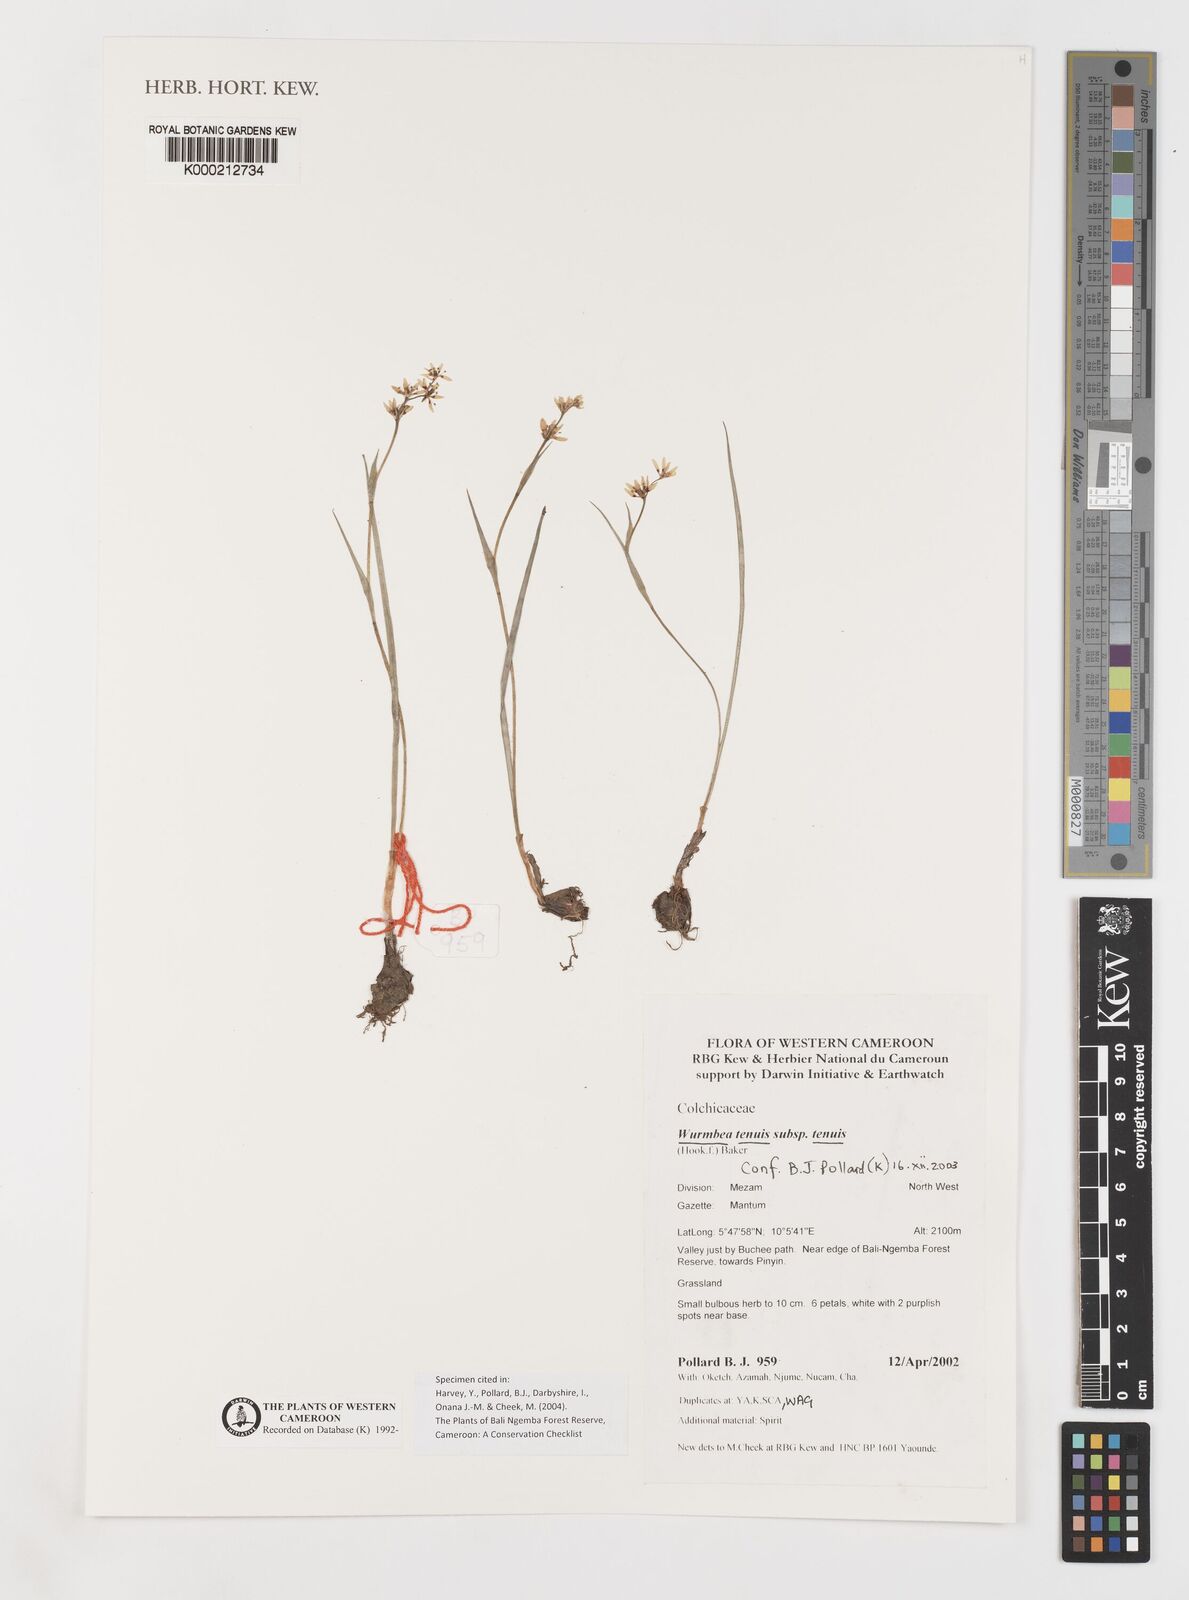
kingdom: Plantae
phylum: Tracheophyta
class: Liliopsida
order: Liliales
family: Colchicaceae
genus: Wurmbea
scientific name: Wurmbea tenuis
